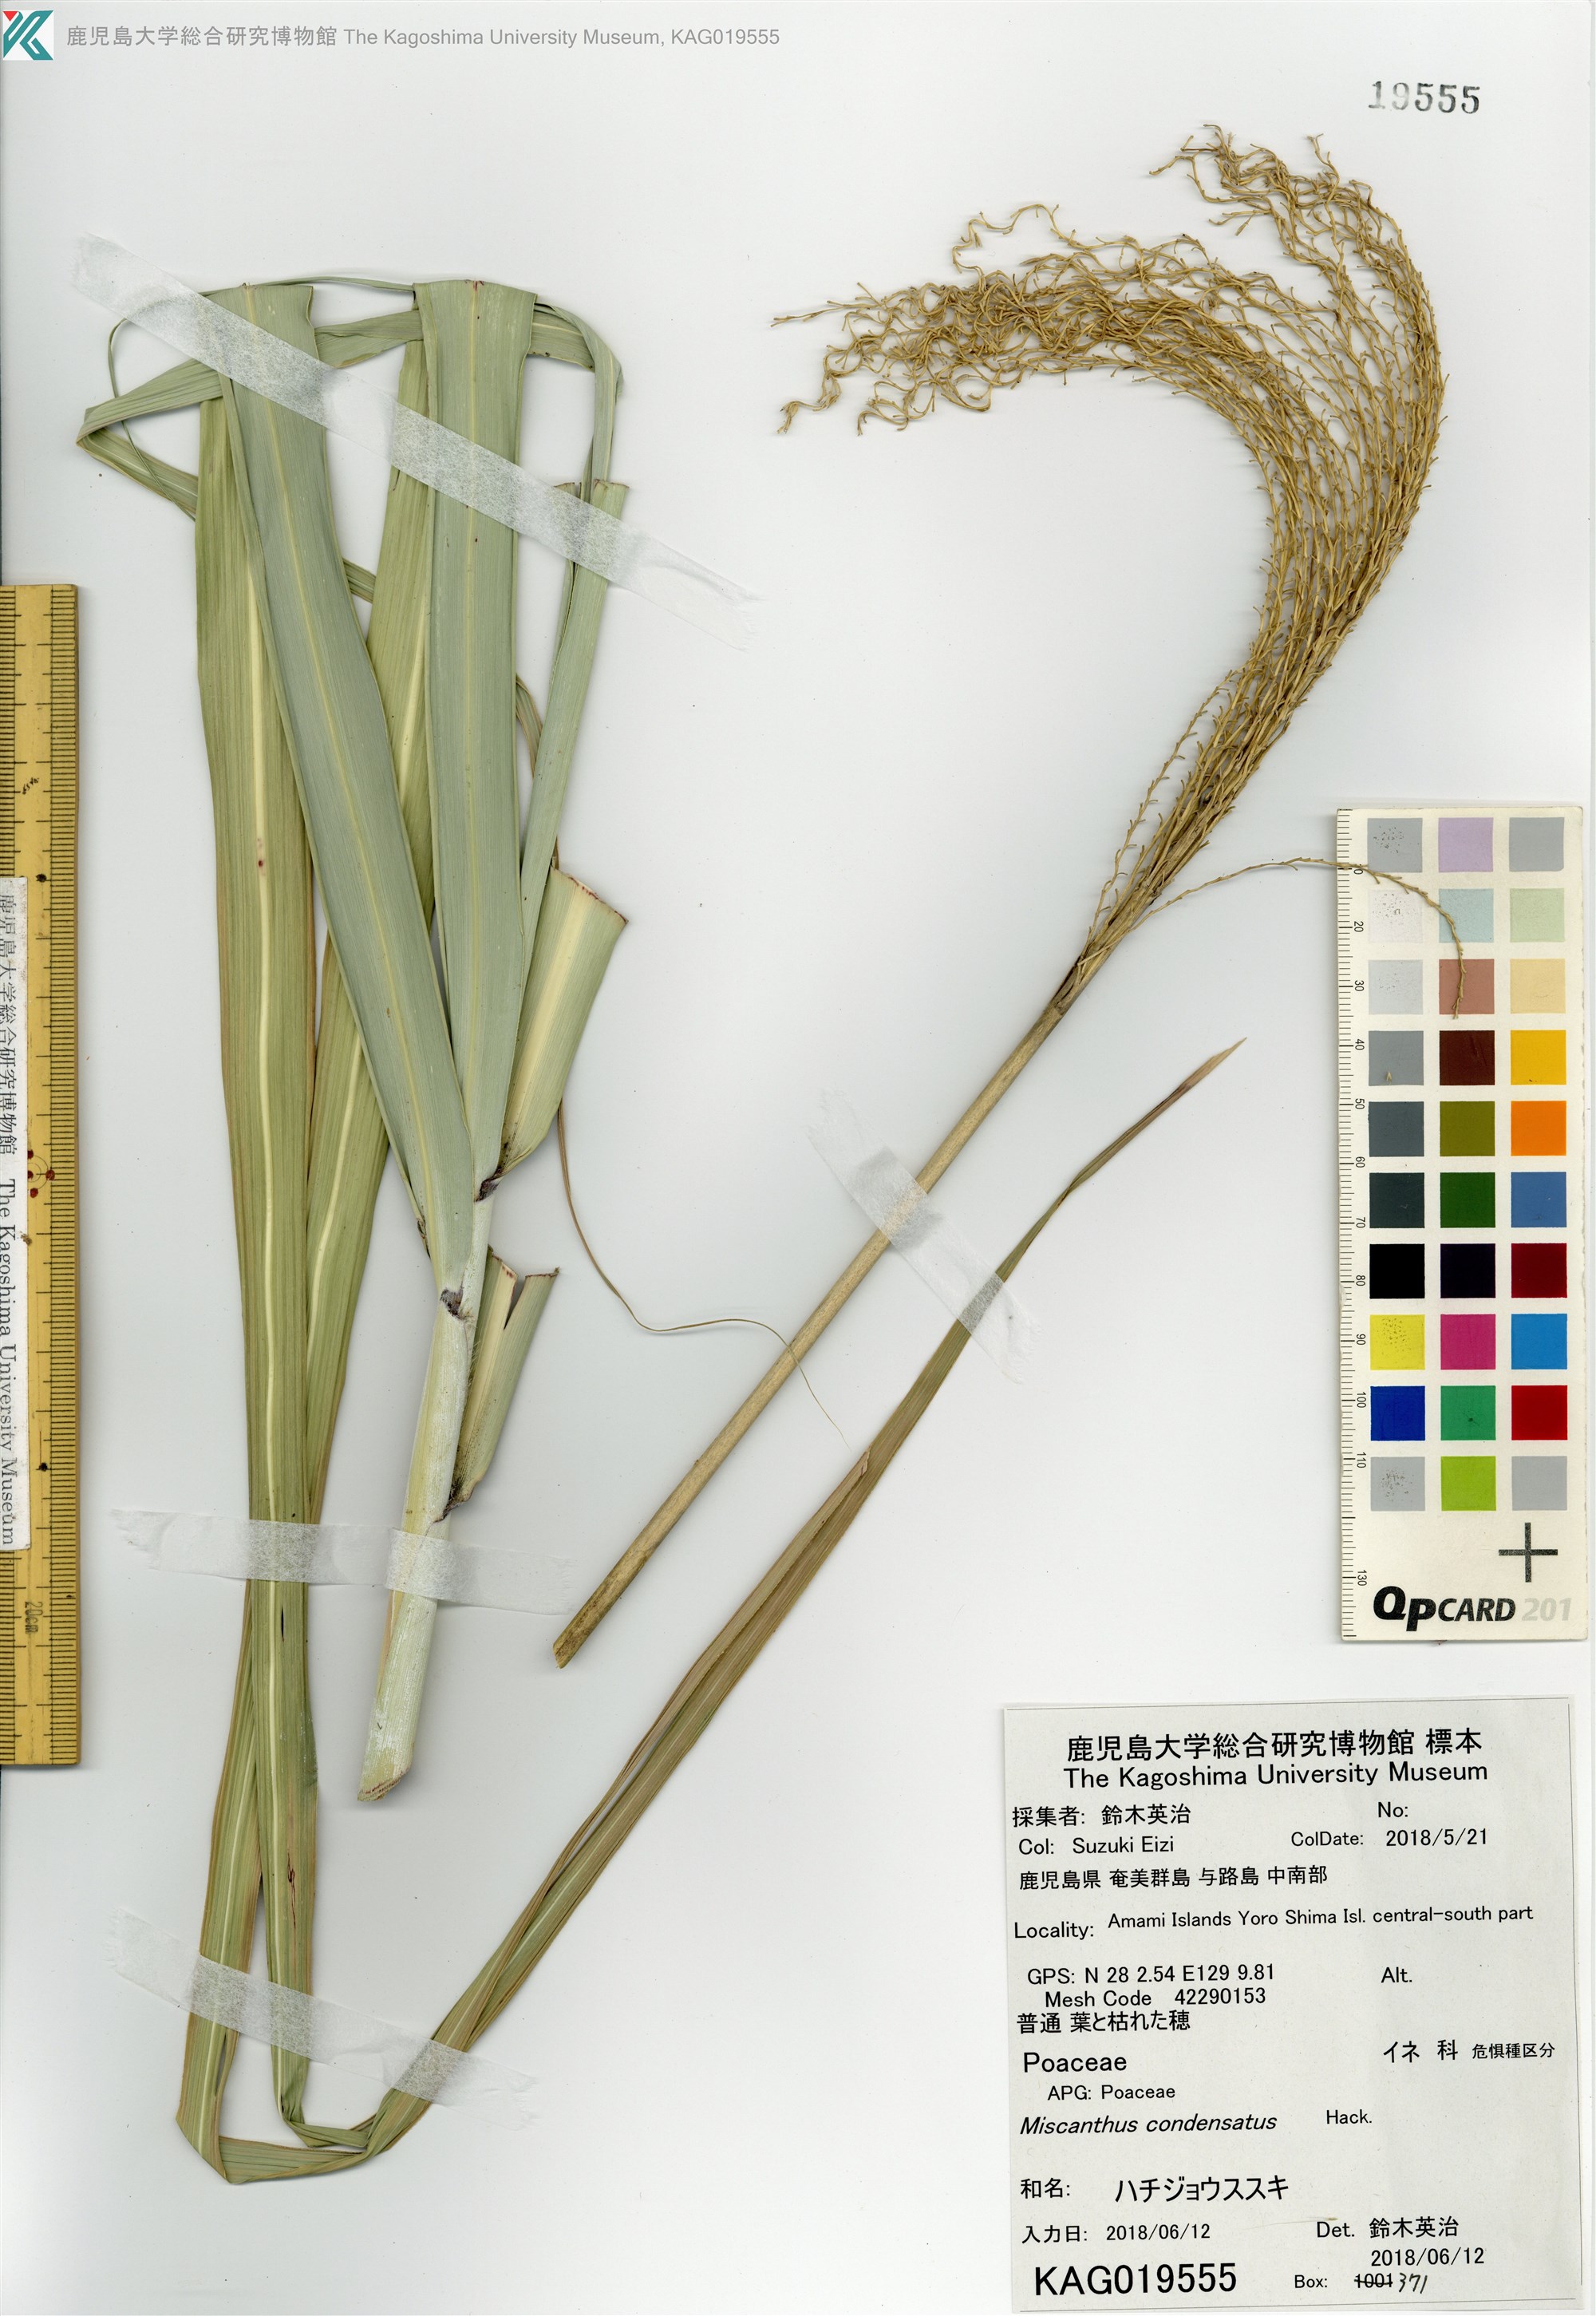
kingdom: Plantae
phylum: Tracheophyta
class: Liliopsida
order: Poales
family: Poaceae
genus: Miscanthus
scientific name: Miscanthus sinensis
